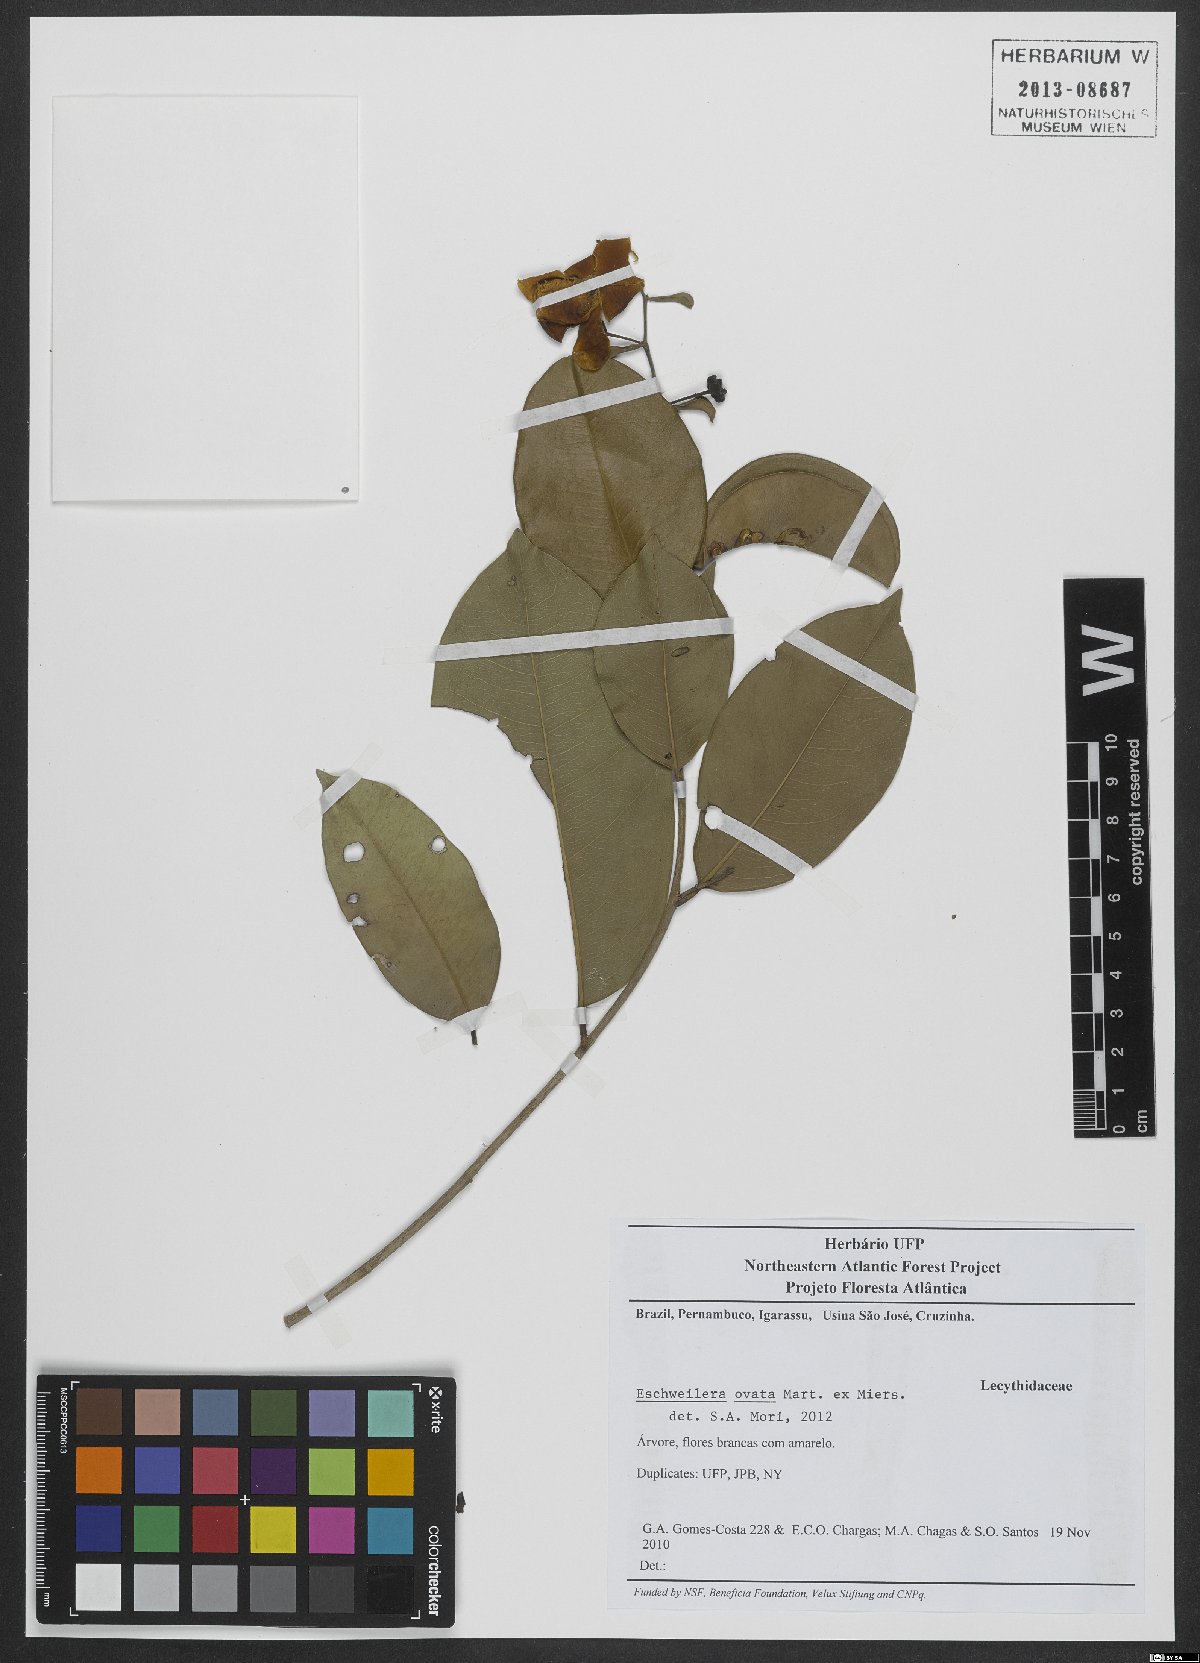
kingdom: Plantae
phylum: Tracheophyta
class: Magnoliopsida
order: Ericales
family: Lecythidaceae
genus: Eschweilera
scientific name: Eschweilera ovata
